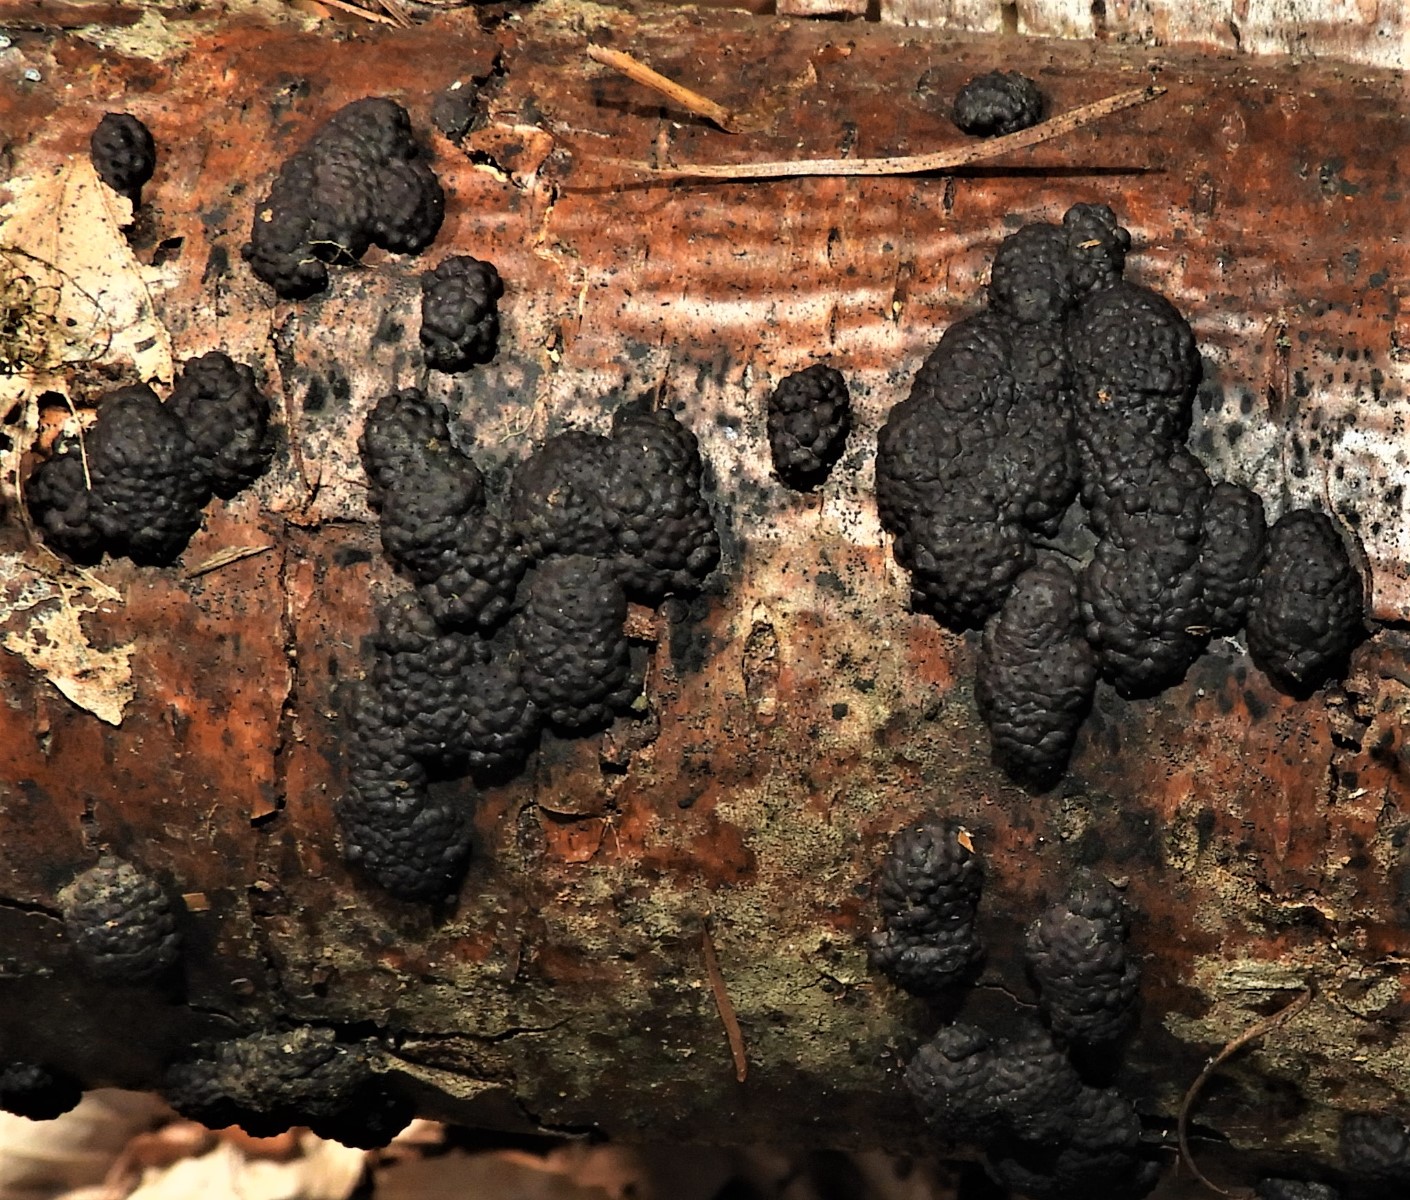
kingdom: Fungi
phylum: Ascomycota
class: Sordariomycetes
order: Xylariales
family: Hypoxylaceae
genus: Jackrogersella
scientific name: Jackrogersella multiformis
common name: foranderlig kulbær
